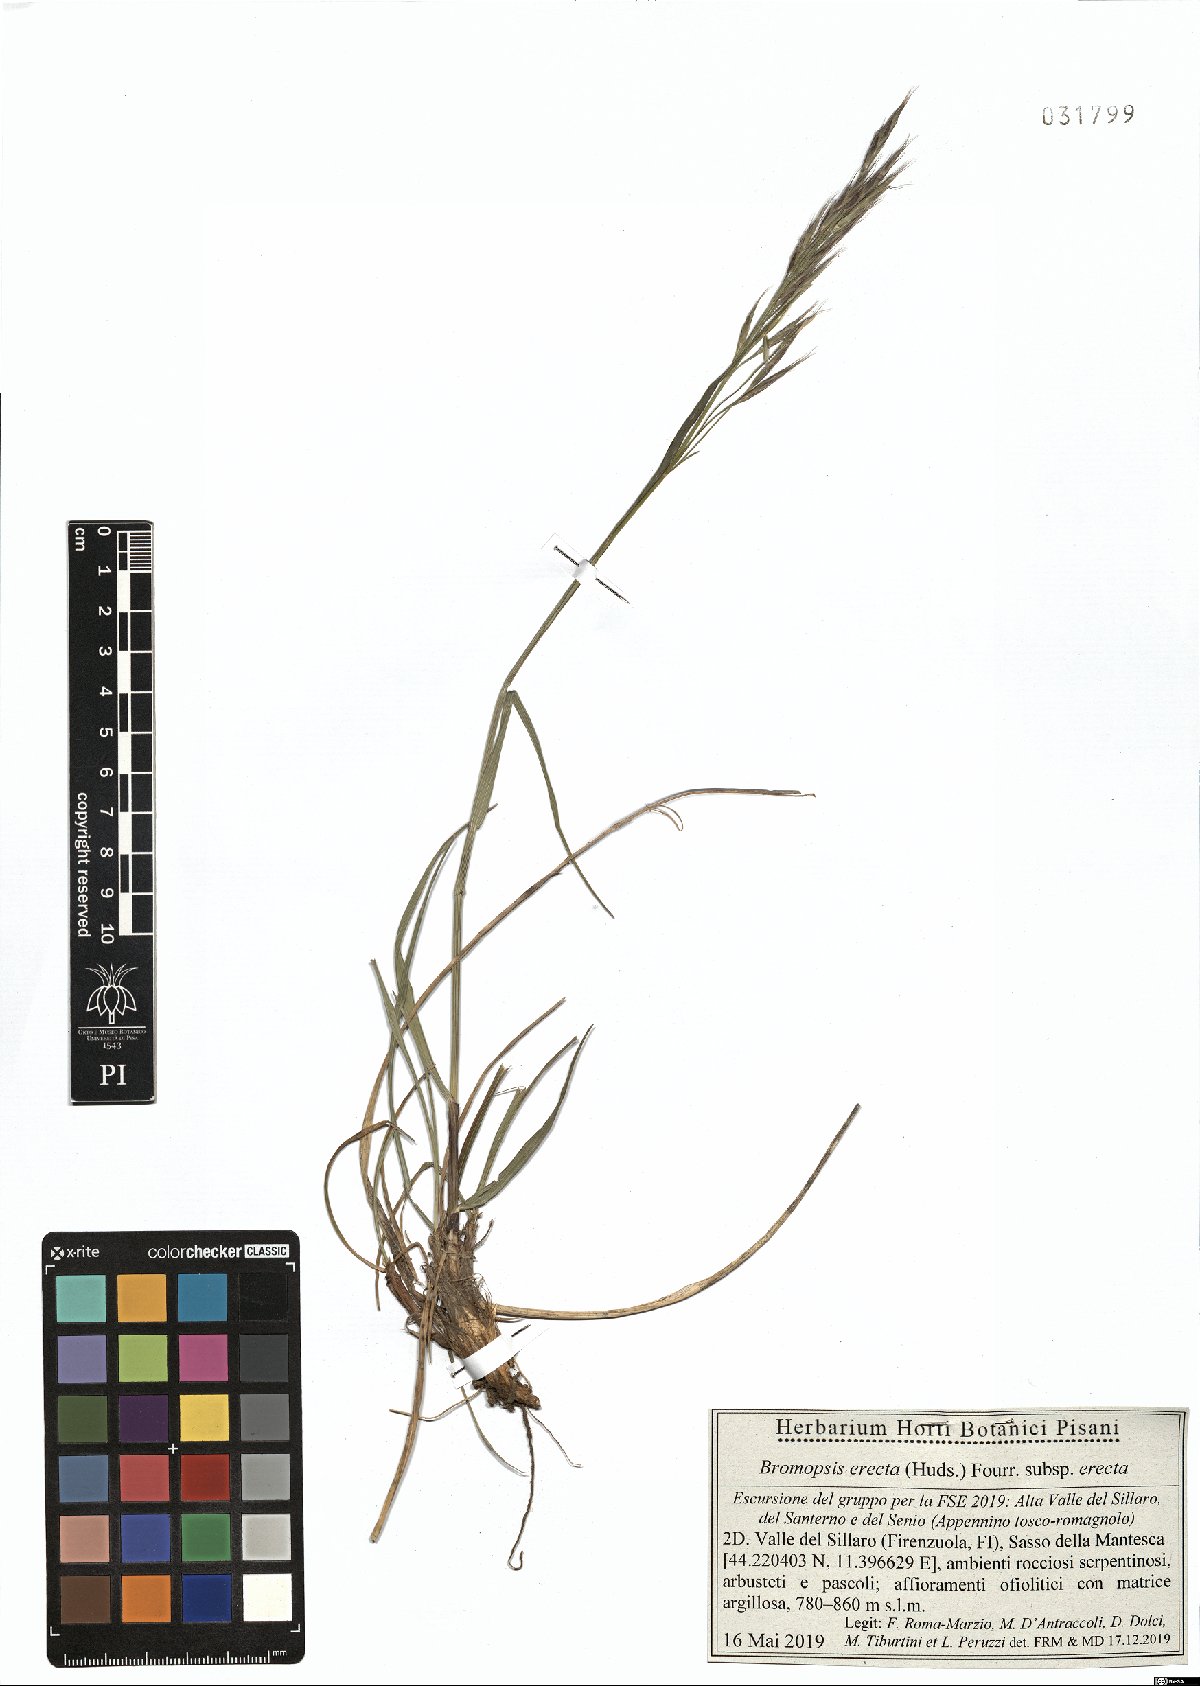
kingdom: Plantae
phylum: Tracheophyta
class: Liliopsida
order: Poales
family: Poaceae
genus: Bromus
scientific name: Bromus erectus
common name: Erect brome
